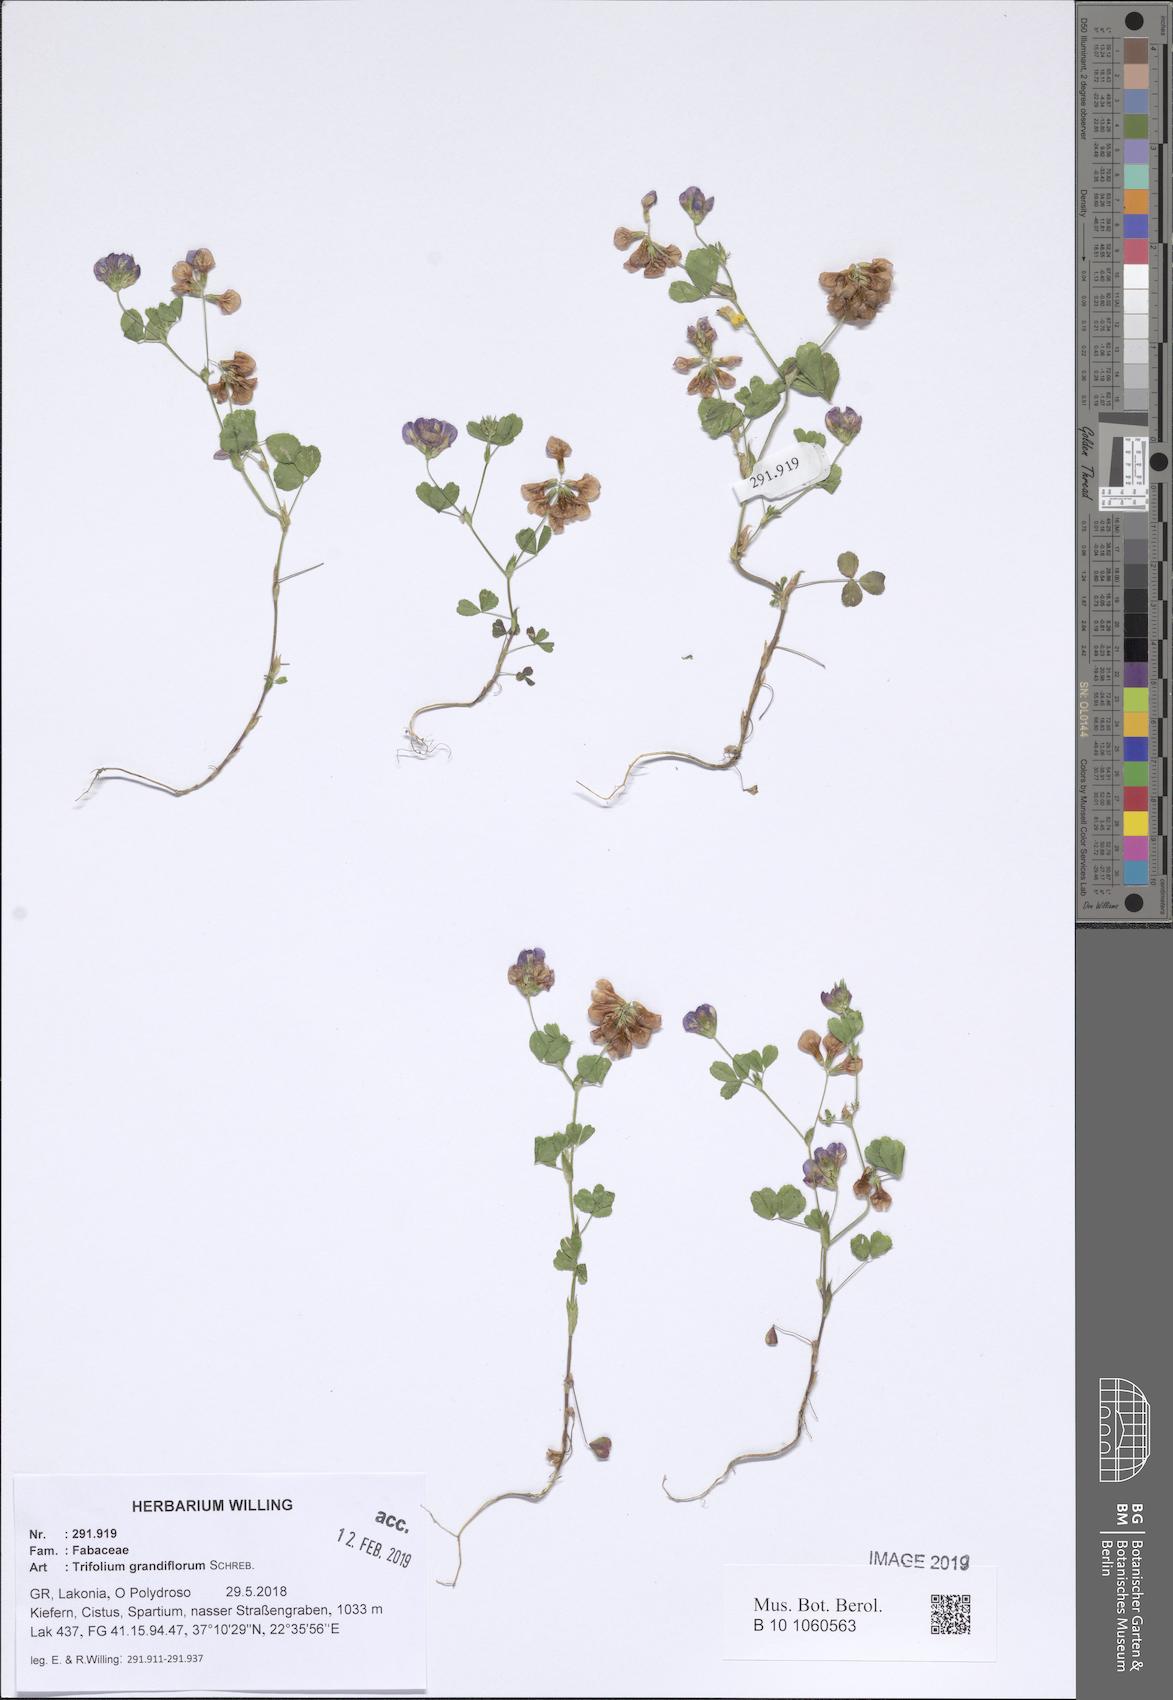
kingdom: Plantae
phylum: Tracheophyta
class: Magnoliopsida
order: Fabales
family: Fabaceae
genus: Trifolium
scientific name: Trifolium grandiflorum
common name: Large-flower hop clover
